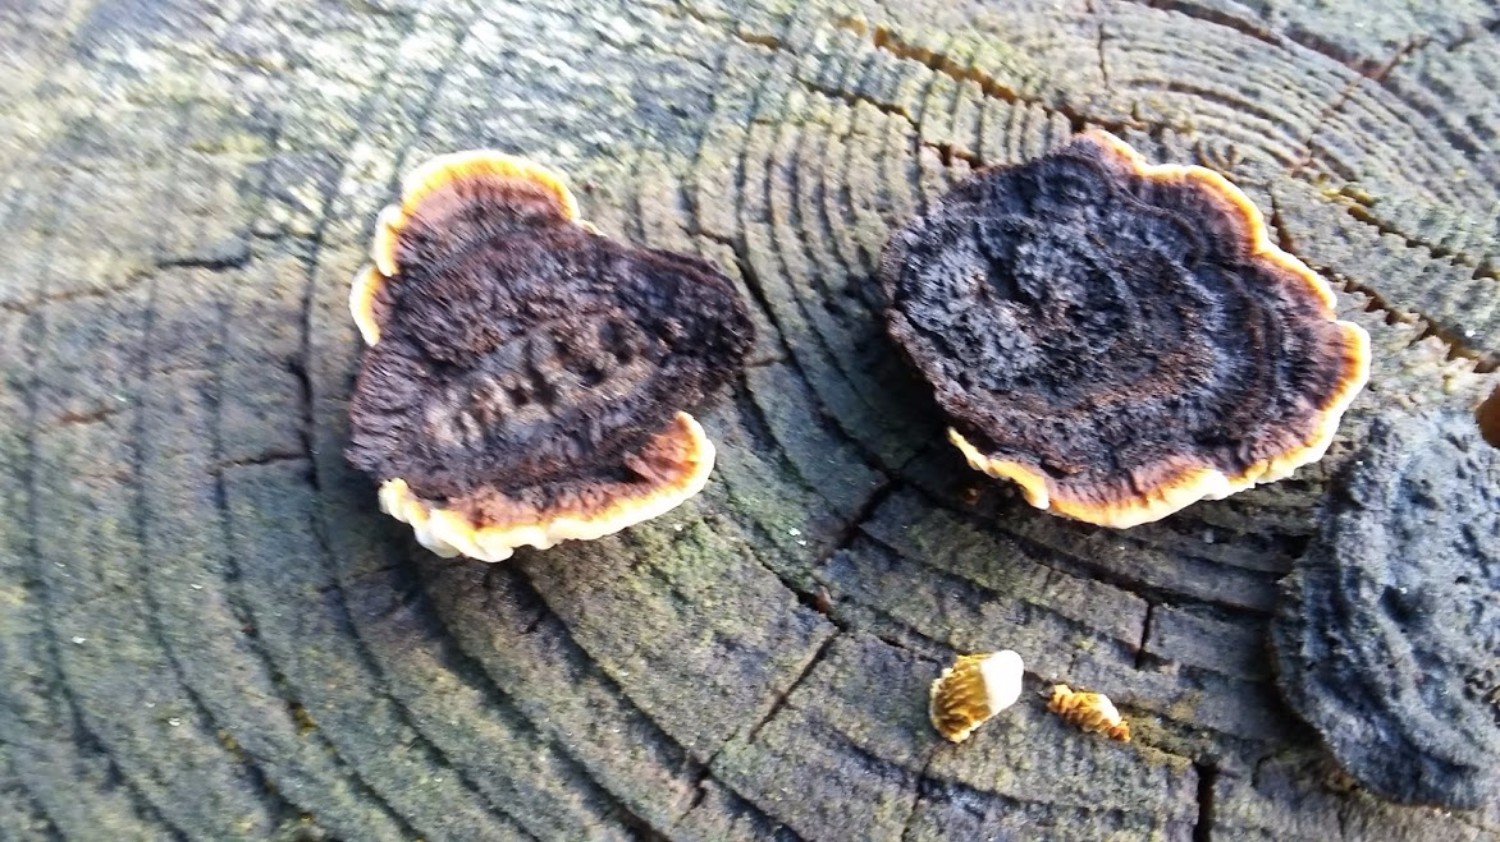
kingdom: Fungi
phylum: Basidiomycota
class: Agaricomycetes
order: Gloeophyllales
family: Gloeophyllaceae
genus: Gloeophyllum
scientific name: Gloeophyllum sepiarium
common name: fyrre-korkhat
